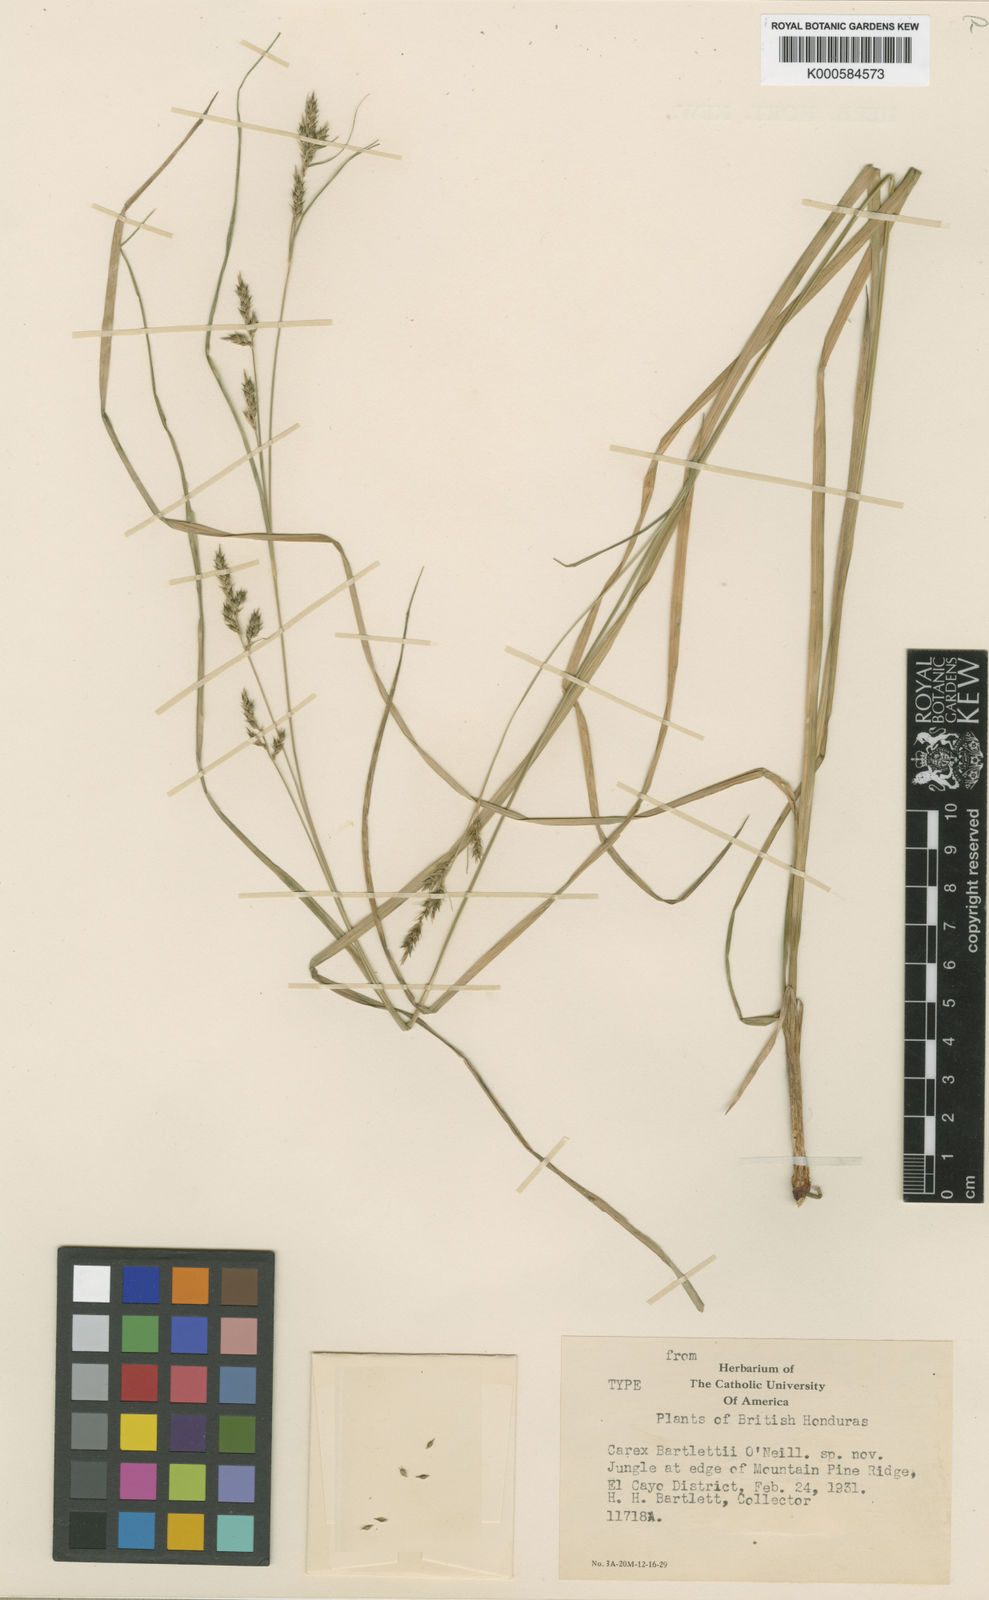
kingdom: Plantae
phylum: Tracheophyta
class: Liliopsida
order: Poales
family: Cyperaceae
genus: Carex
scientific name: Carex polystachya
